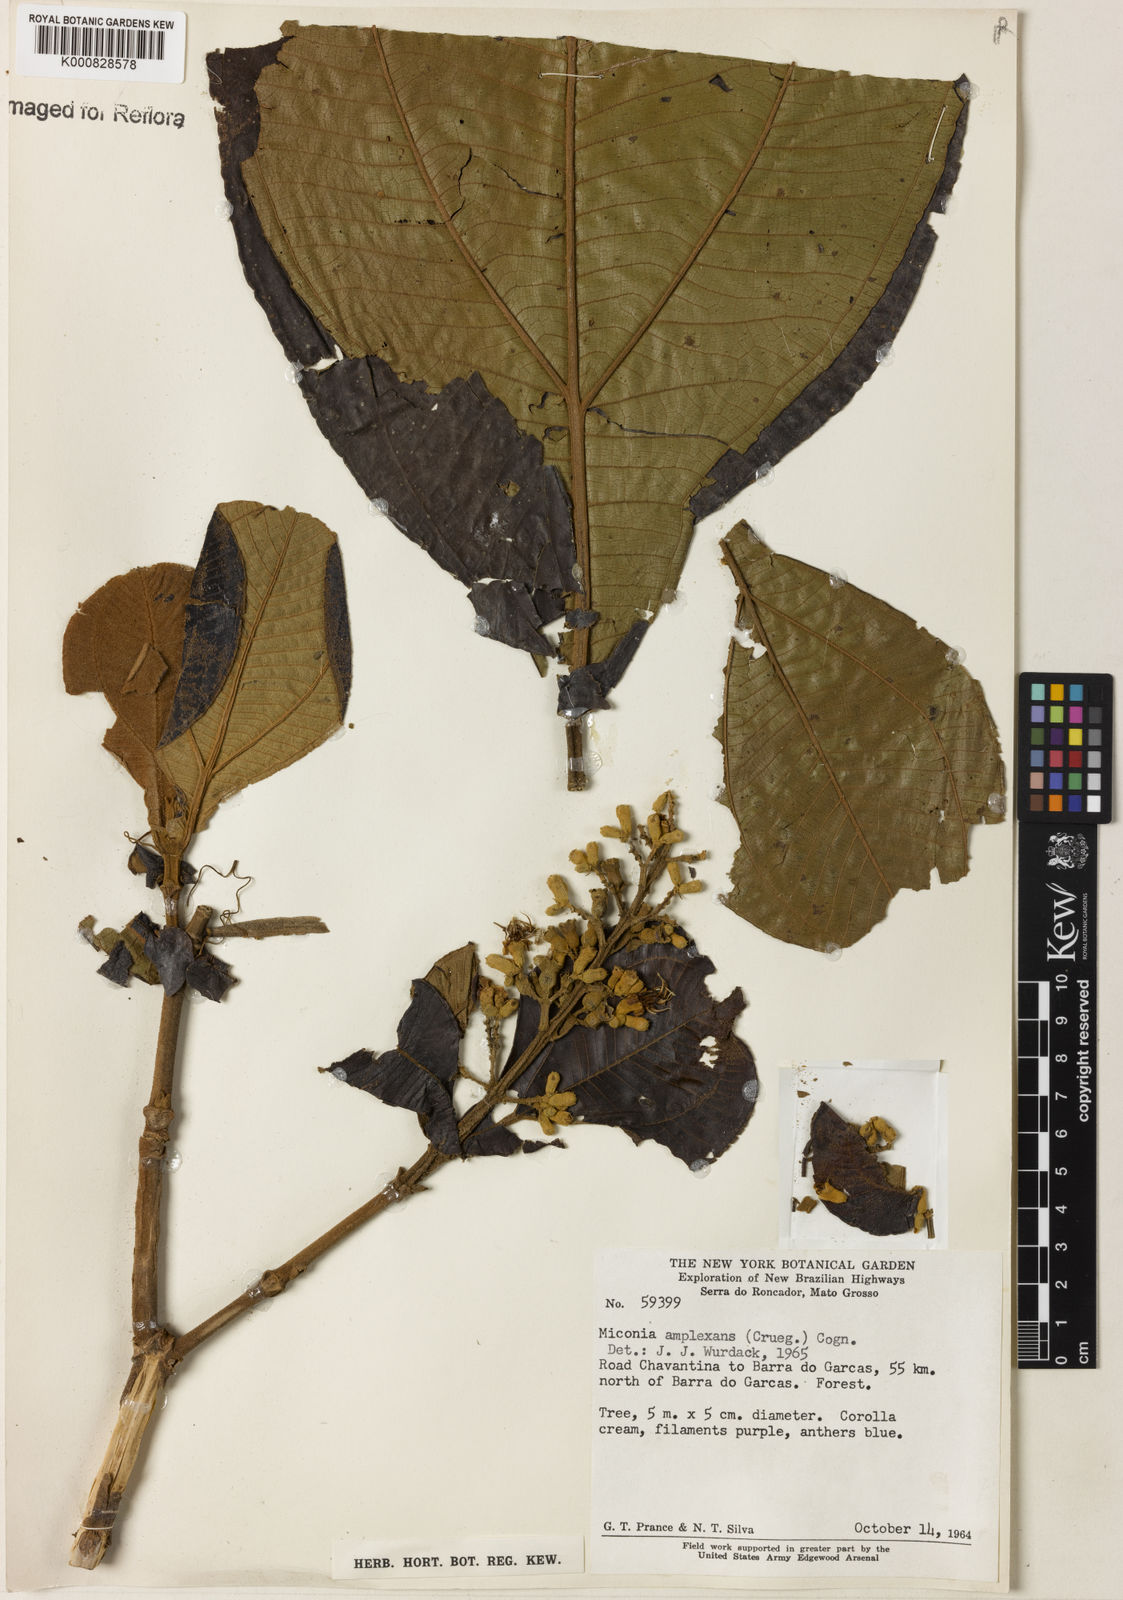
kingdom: Plantae
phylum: Tracheophyta
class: Magnoliopsida
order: Myrtales
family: Melastomataceae
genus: Miconia
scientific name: Miconia tomentosa
